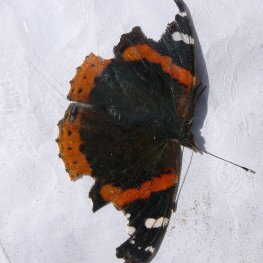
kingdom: Animalia
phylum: Arthropoda
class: Insecta
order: Lepidoptera
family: Nymphalidae
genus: Vanessa
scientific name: Vanessa atalanta
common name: Red Admiral
